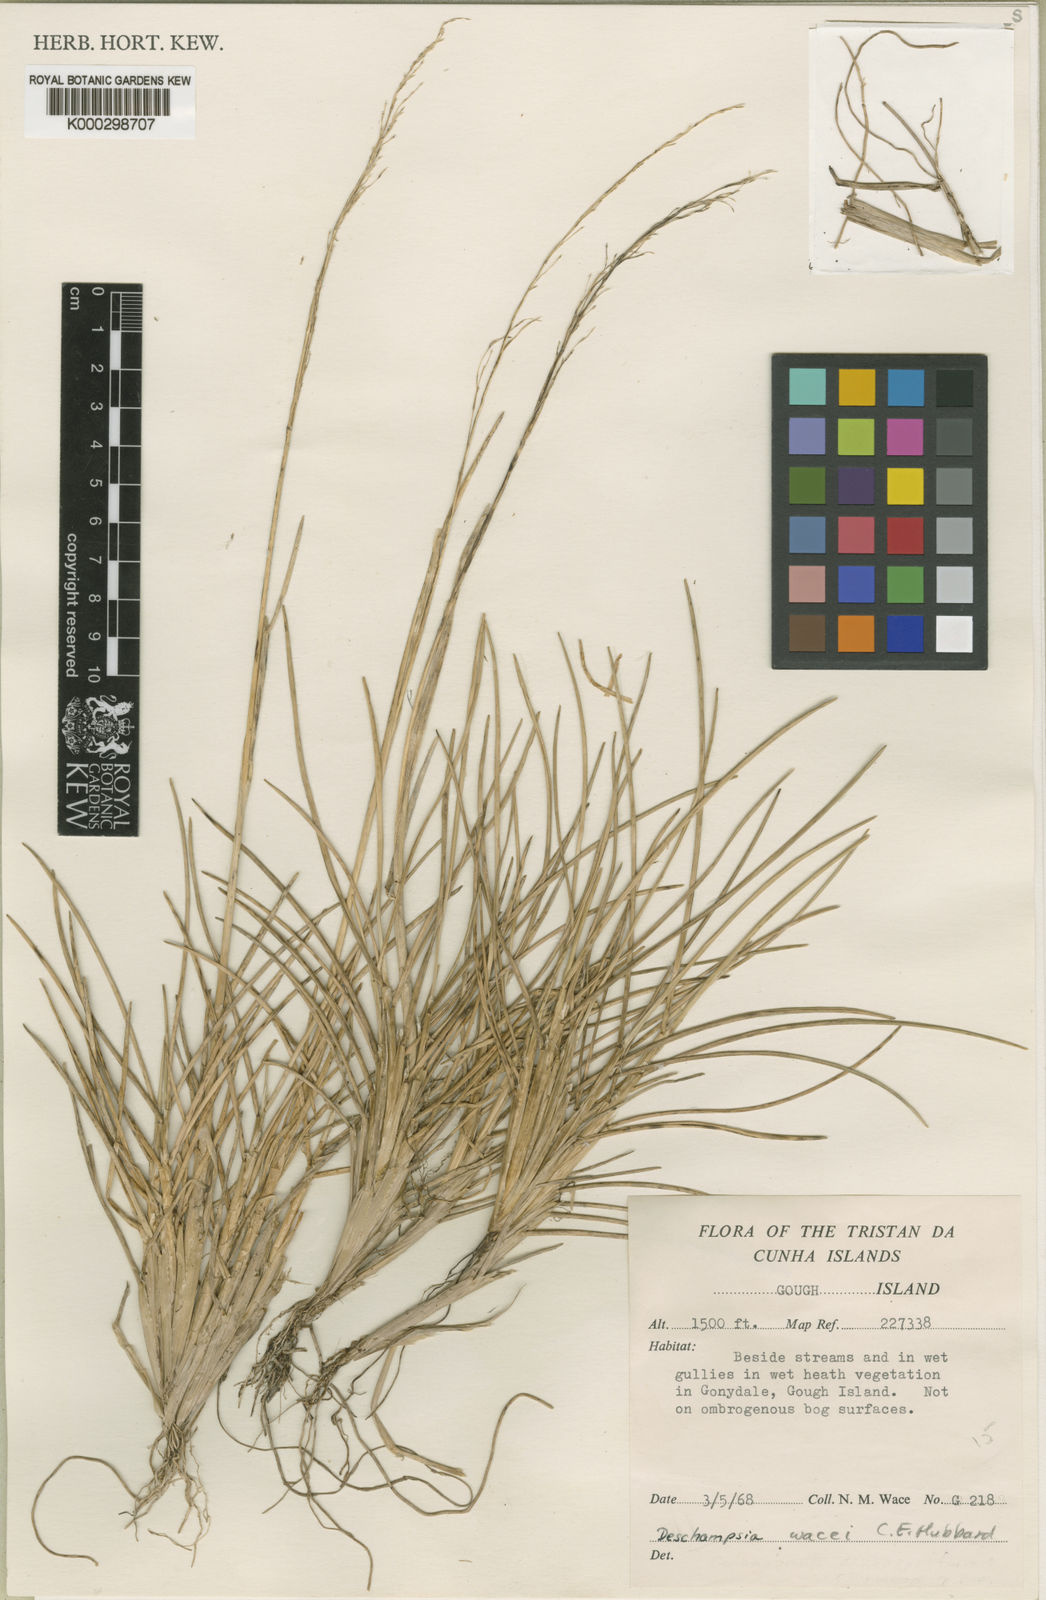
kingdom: Plantae
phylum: Tracheophyta
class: Liliopsida
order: Poales
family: Poaceae
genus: Deschampsia
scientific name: Deschampsia wacei
